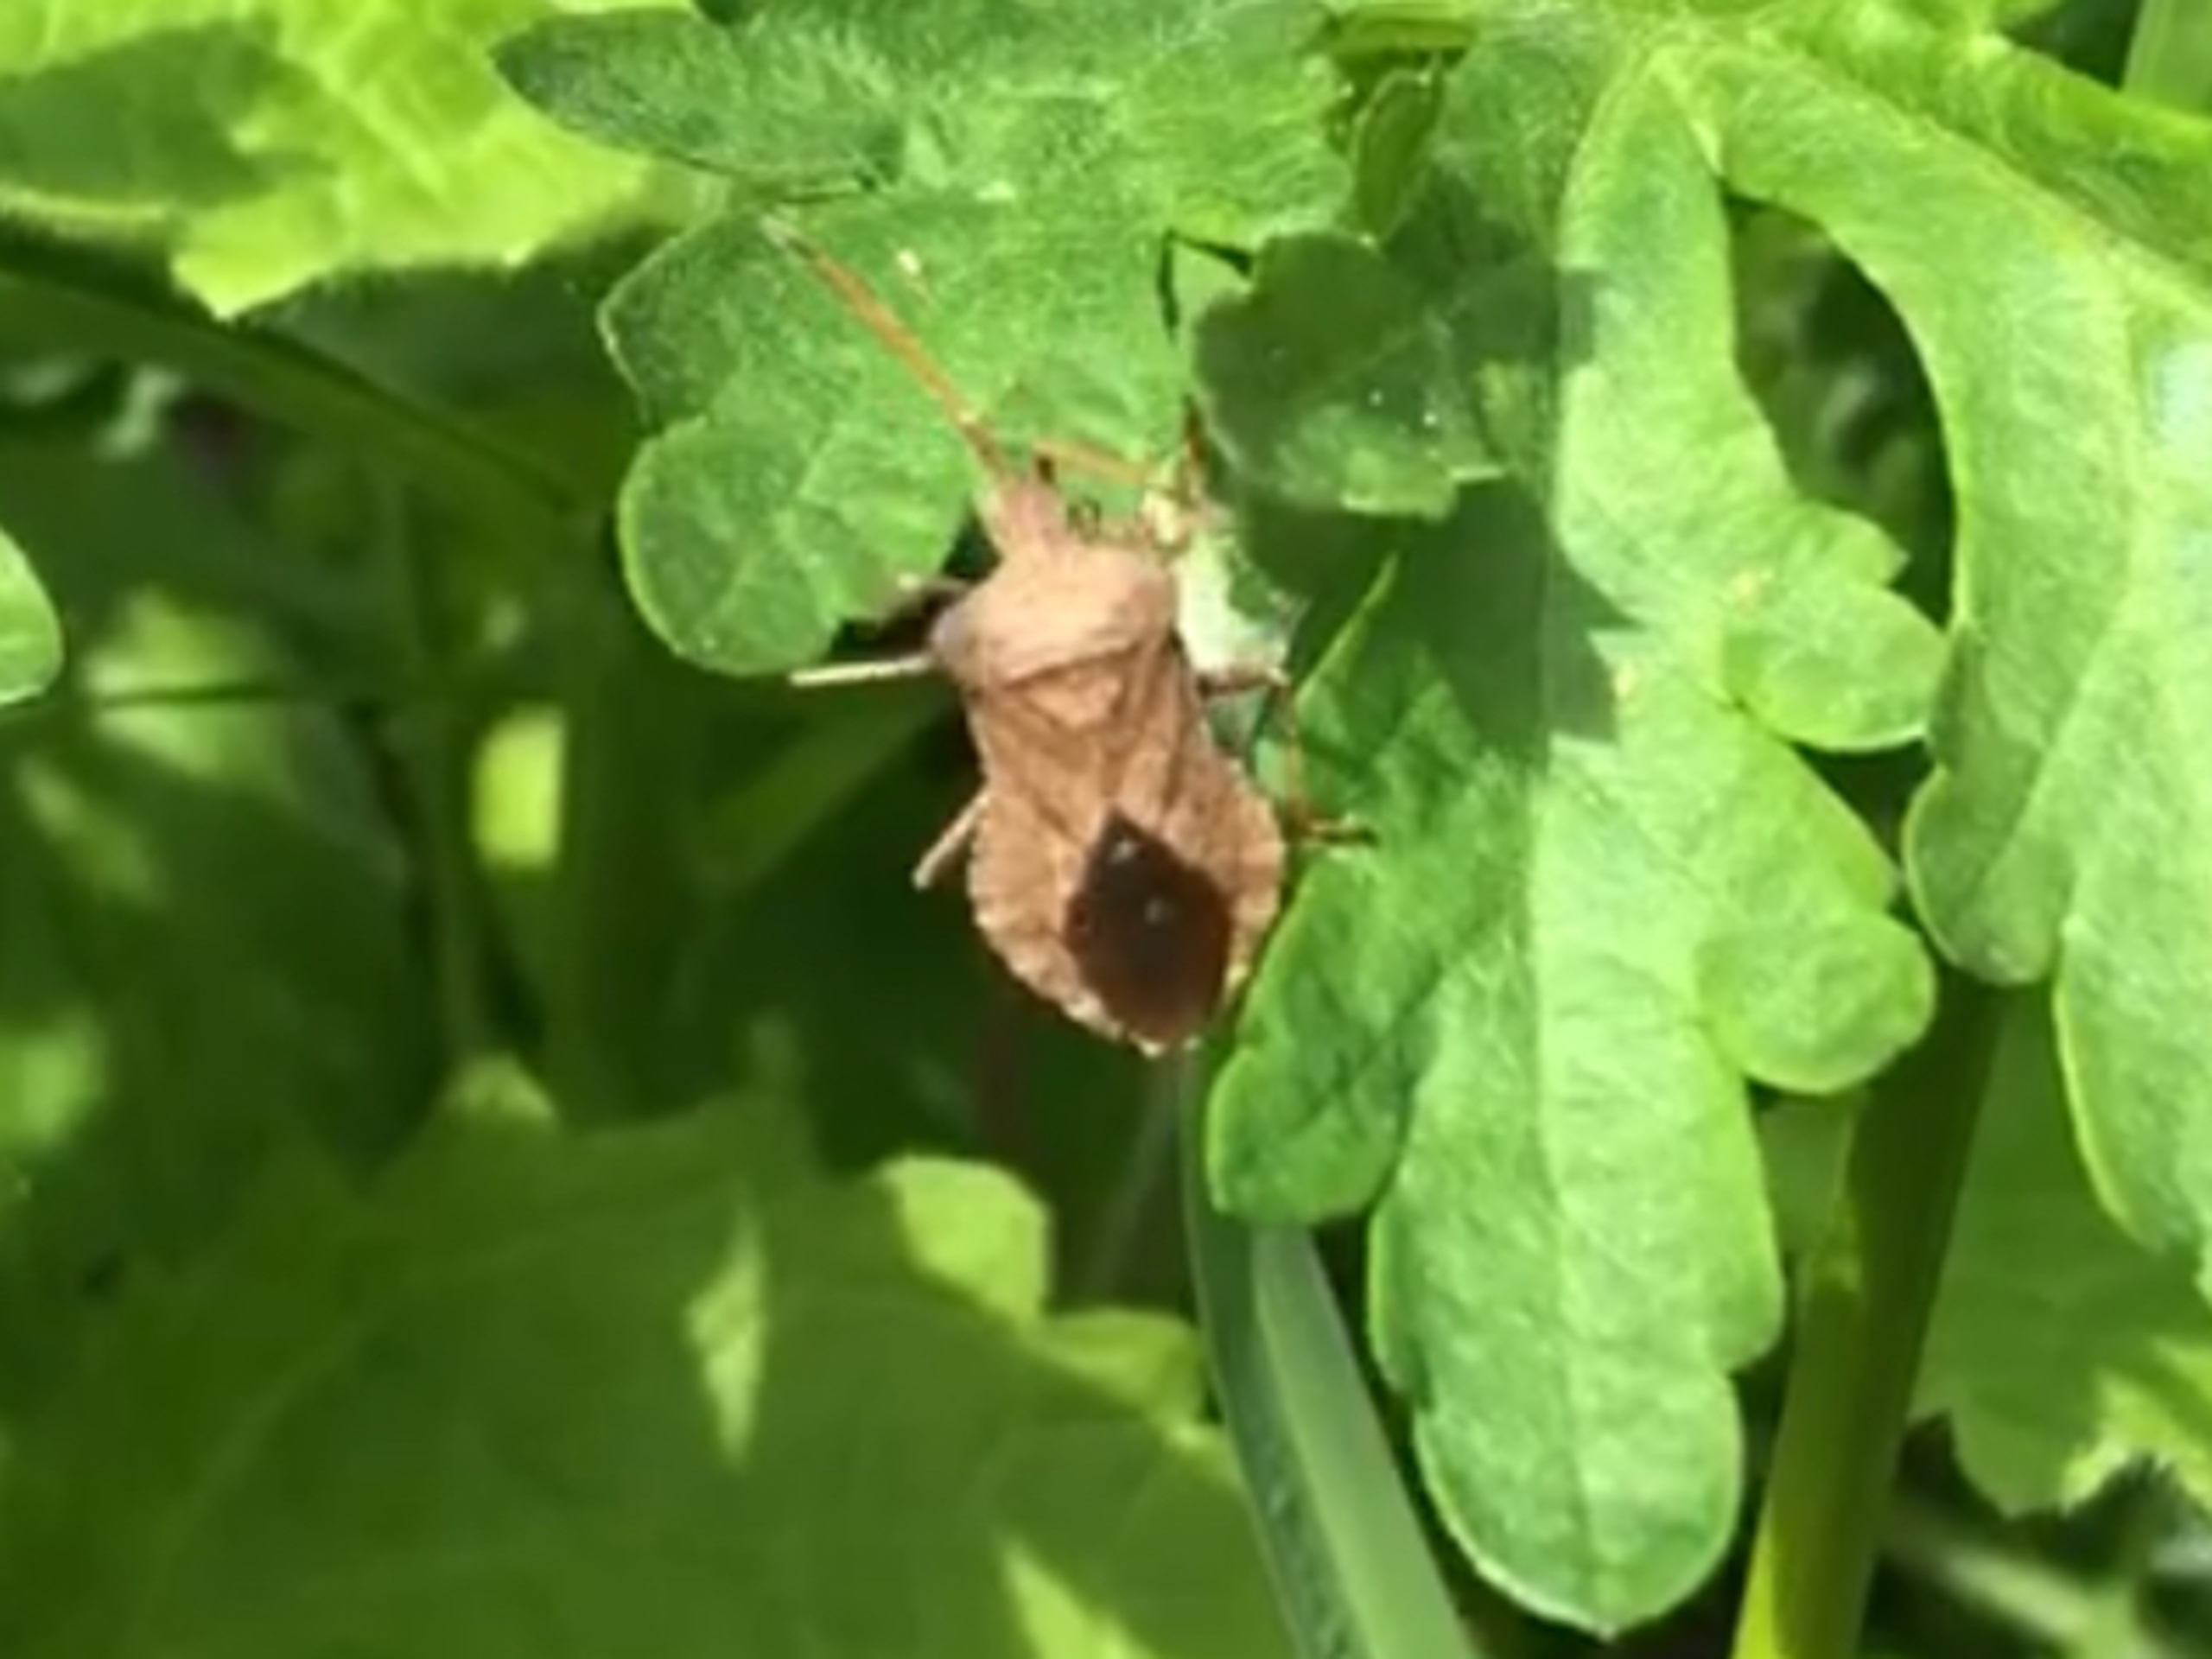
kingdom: Animalia
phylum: Arthropoda
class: Insecta
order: Hemiptera
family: Coreidae
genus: Coreus
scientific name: Coreus marginatus
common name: Skræppetæge
